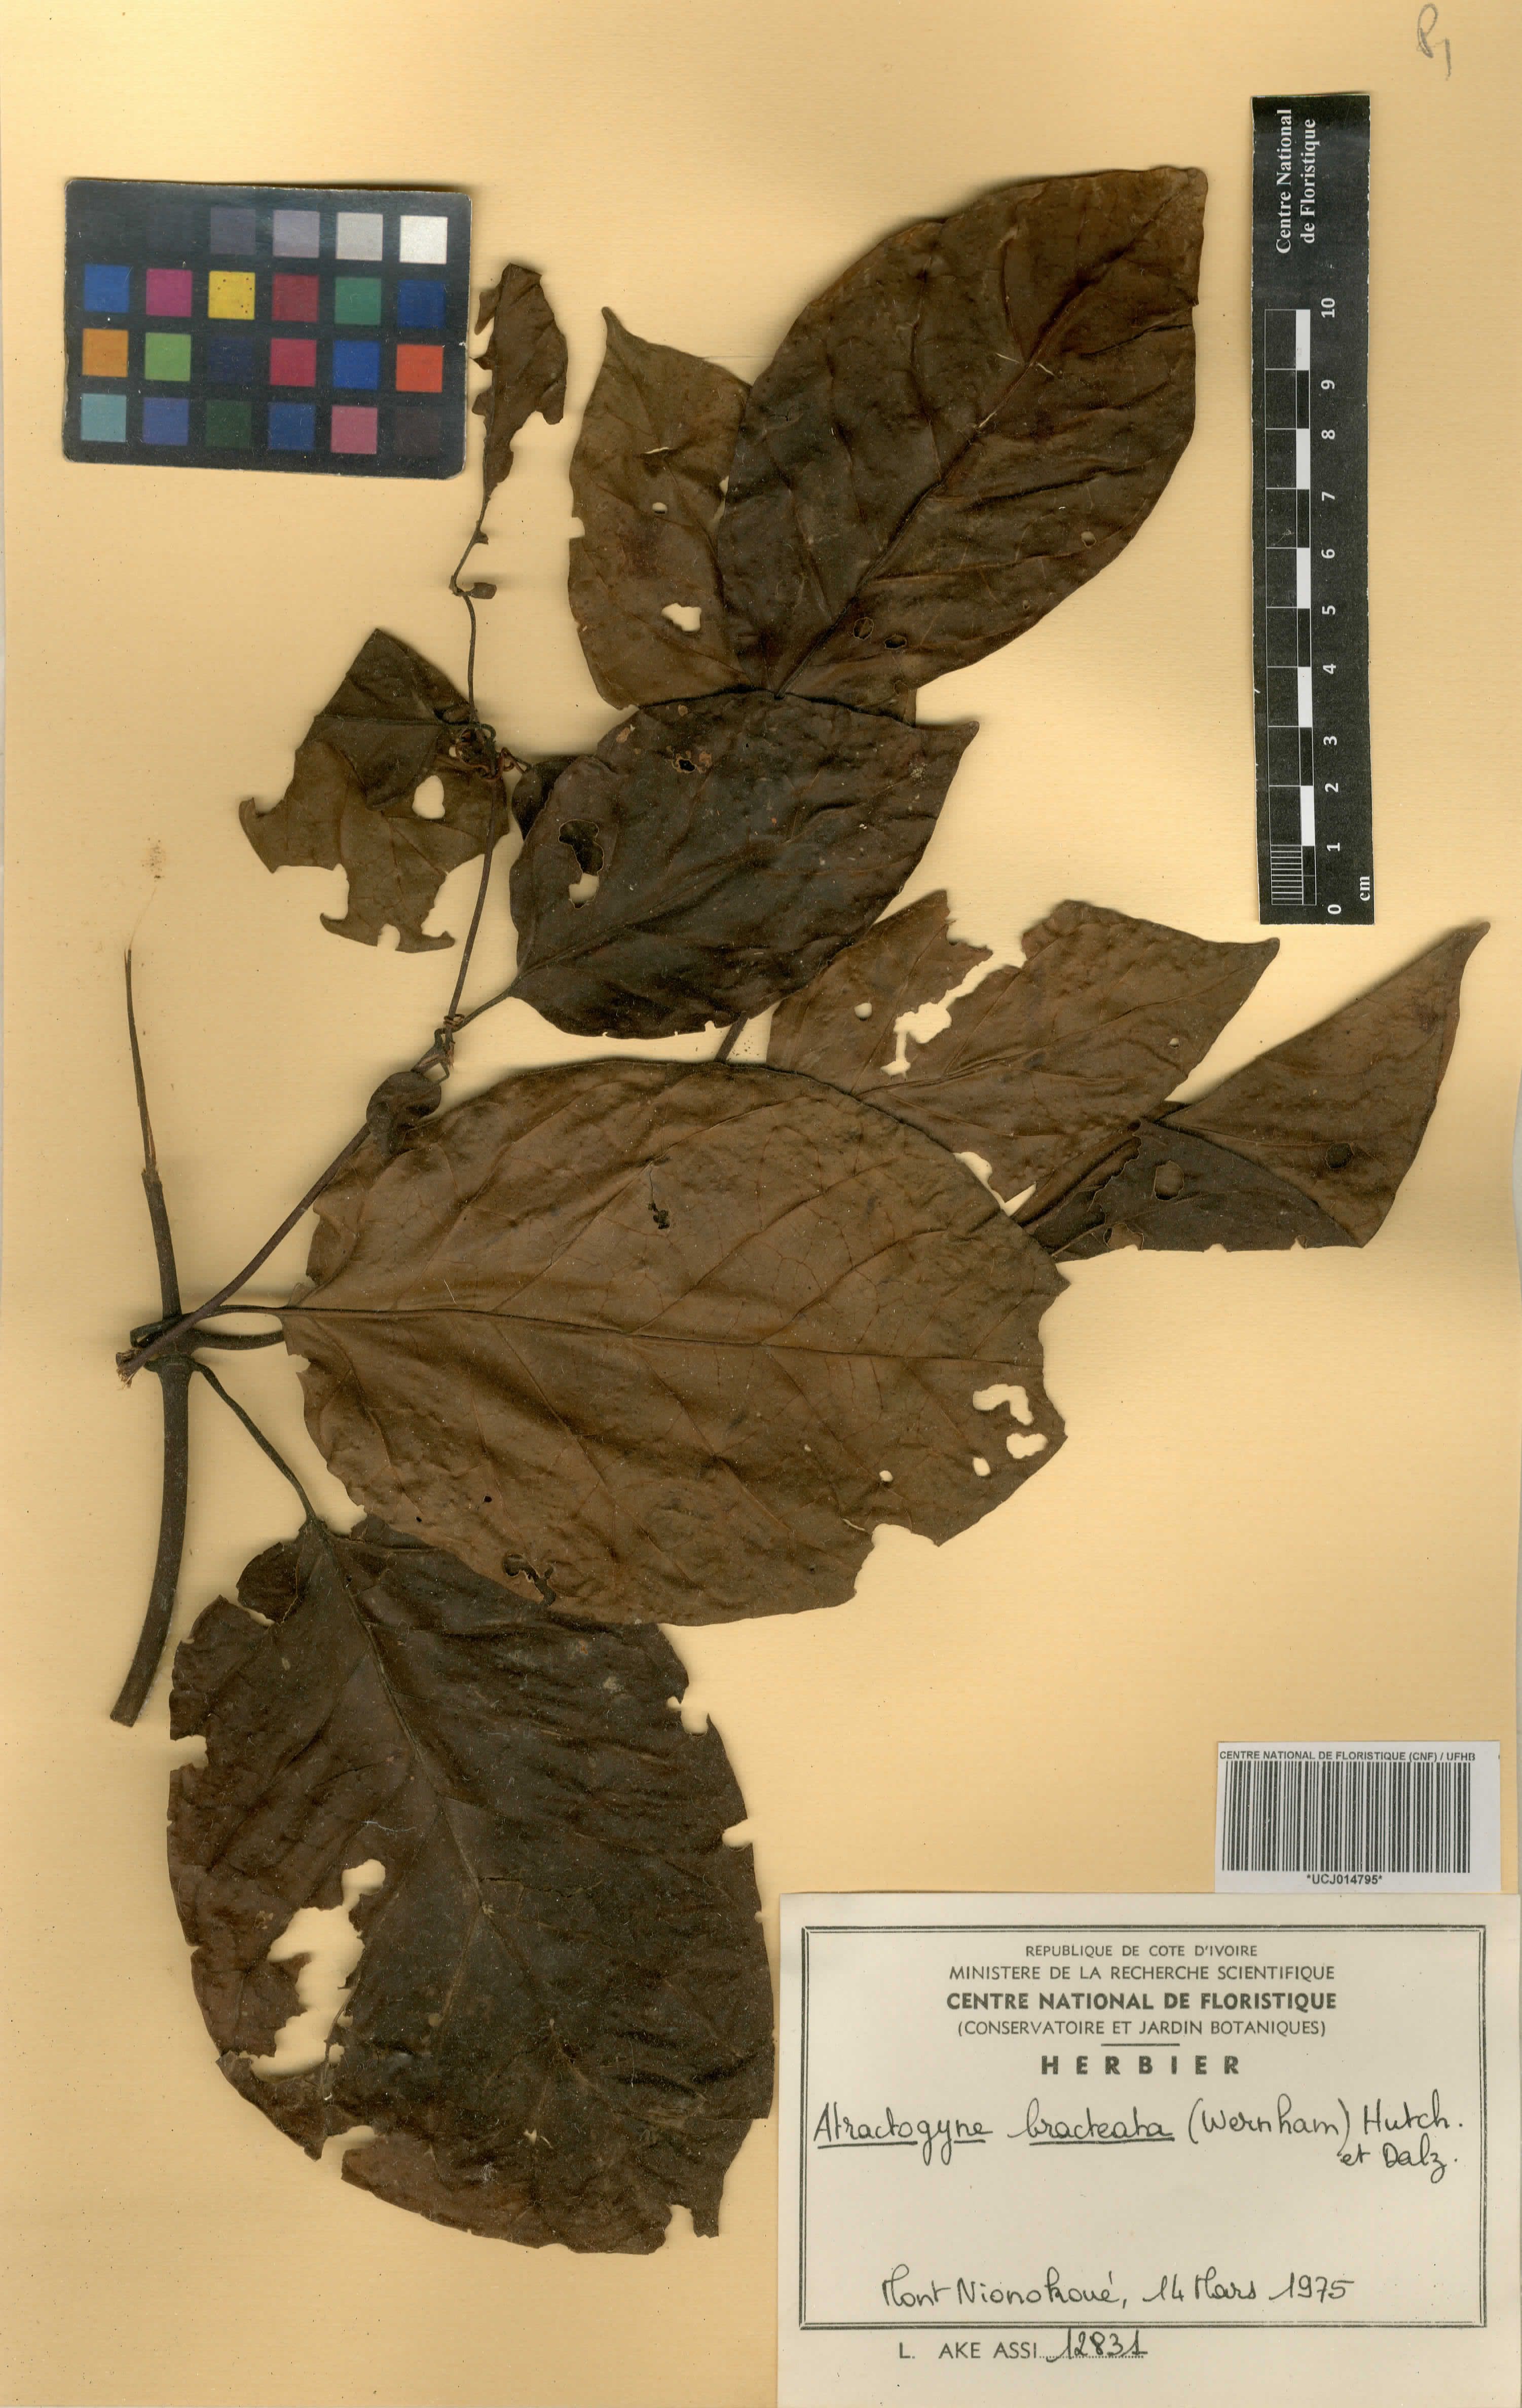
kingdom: Plantae
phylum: Tracheophyta
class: Magnoliopsida
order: Gentianales
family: Rubiaceae
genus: Atractogyne
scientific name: Atractogyne bracteata
